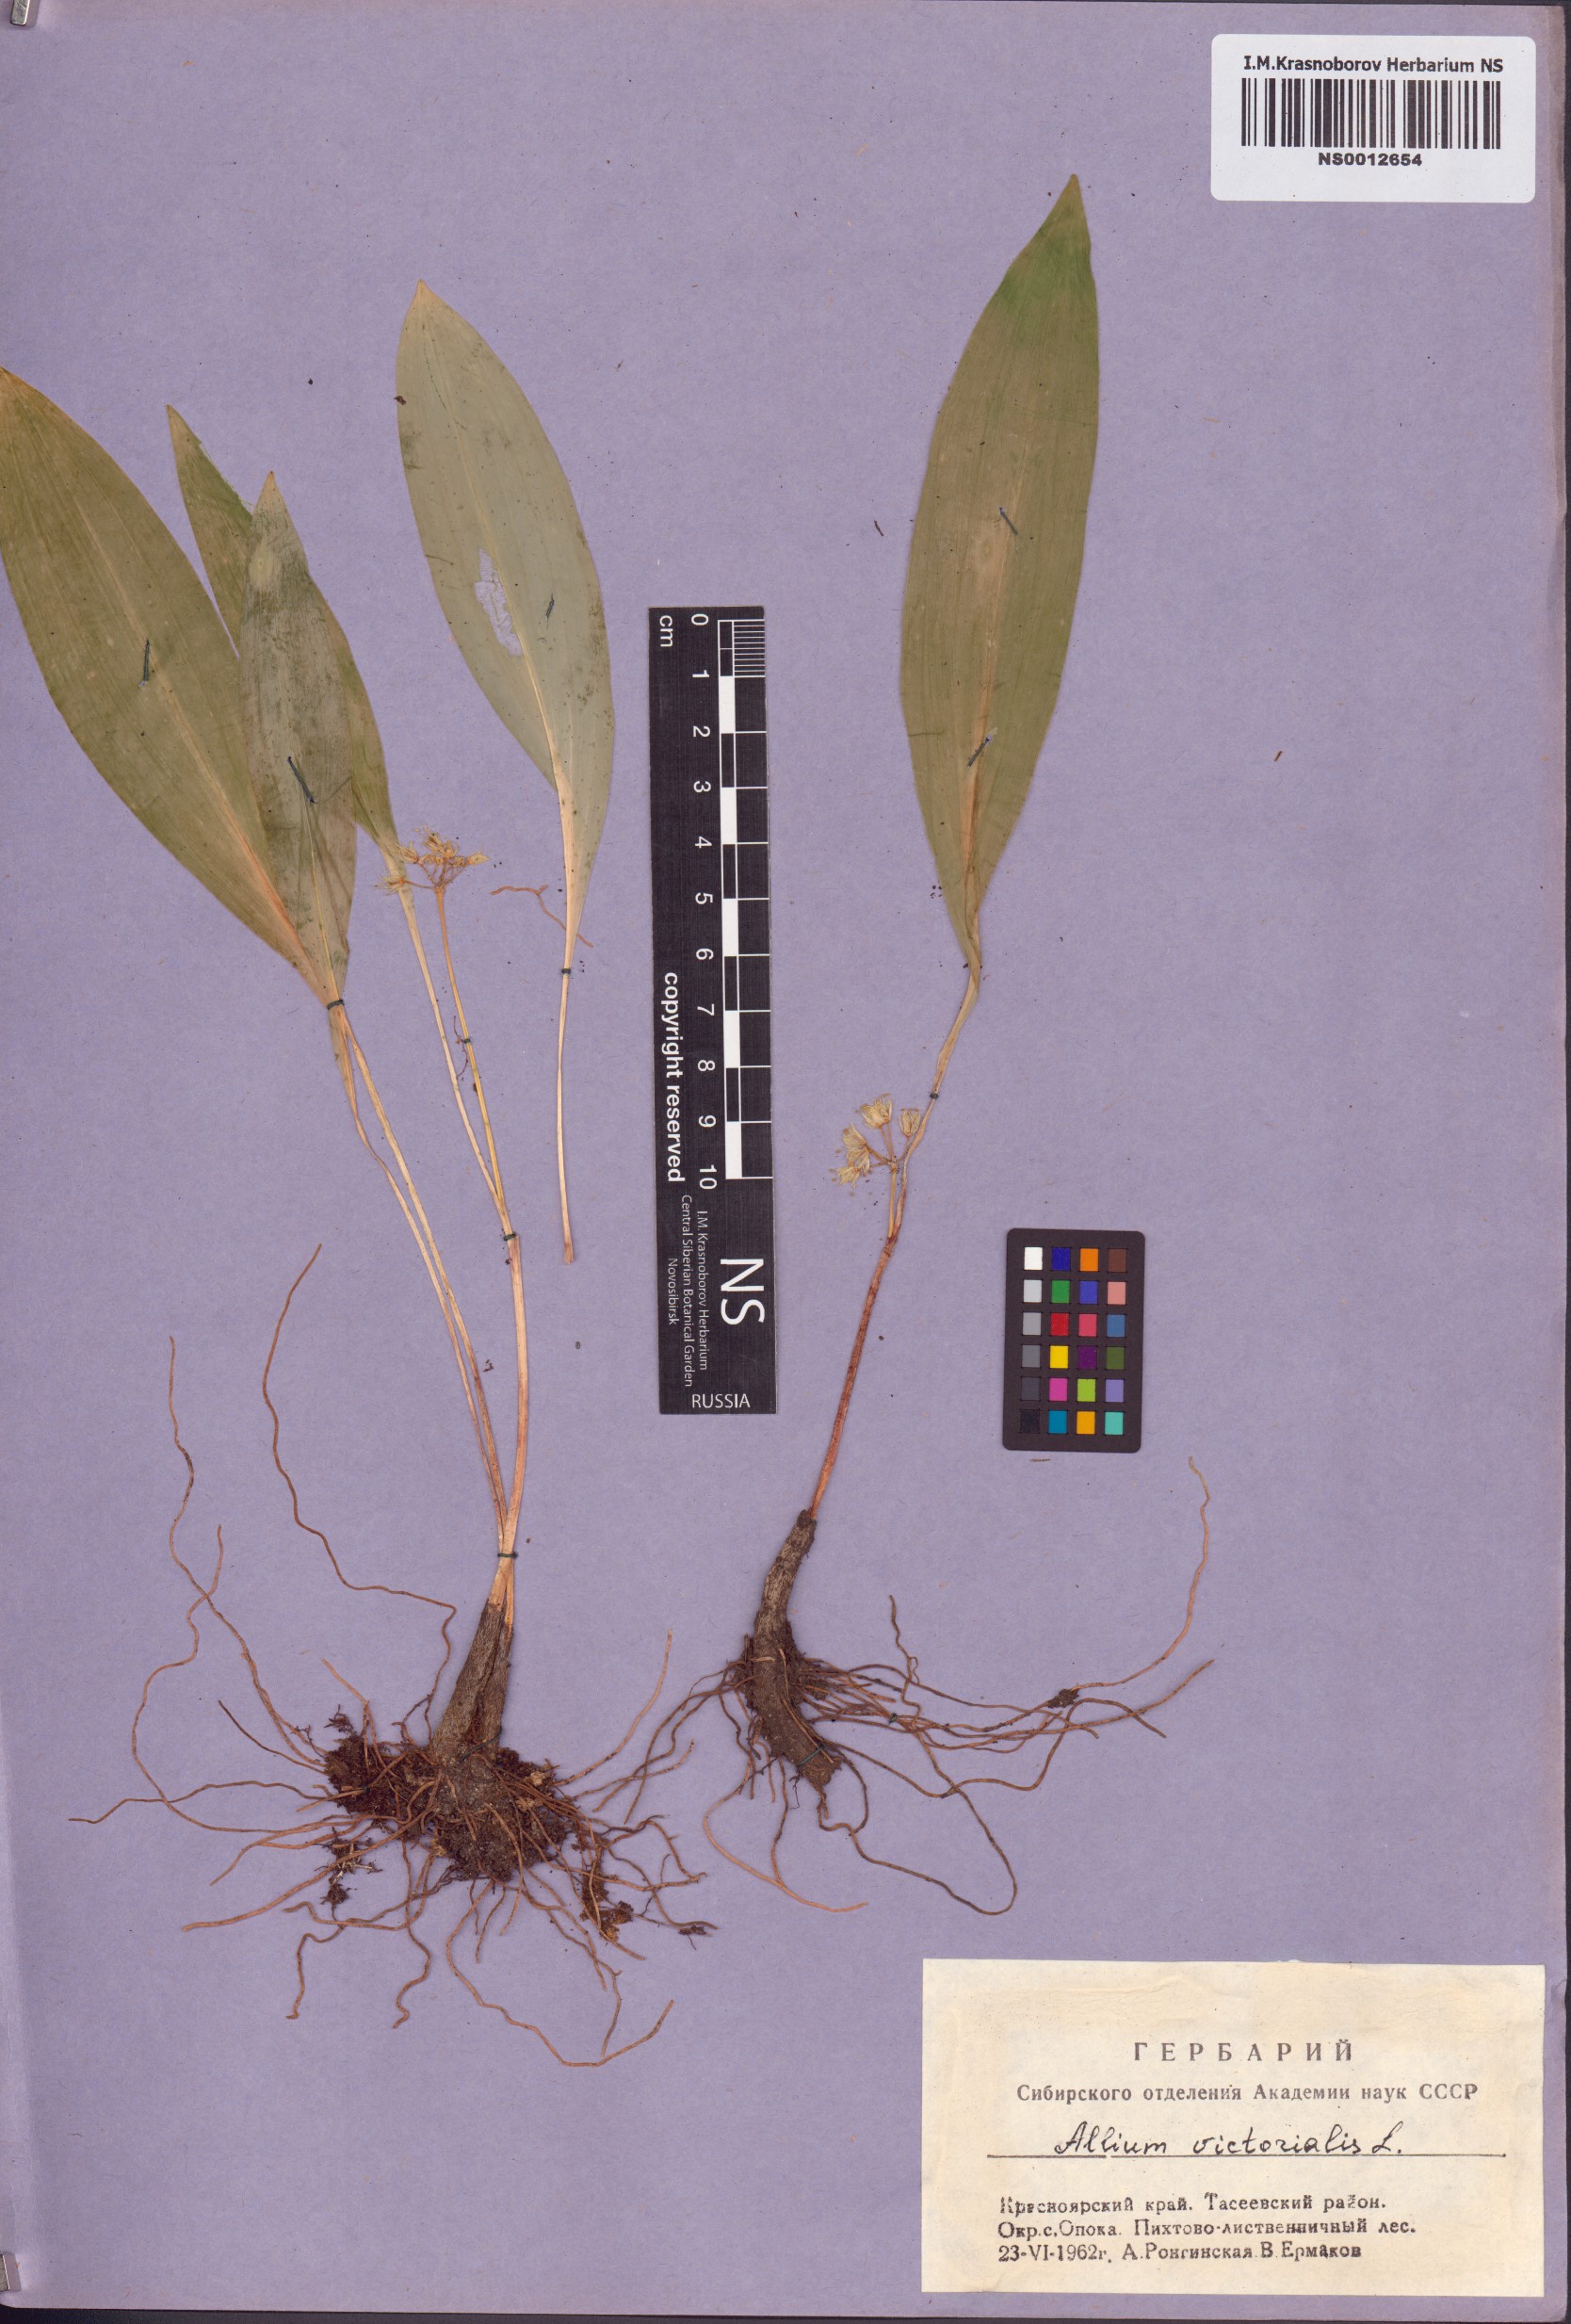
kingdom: Plantae
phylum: Tracheophyta
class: Liliopsida
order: Asparagales
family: Amaryllidaceae
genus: Allium
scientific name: Allium microdictyon
